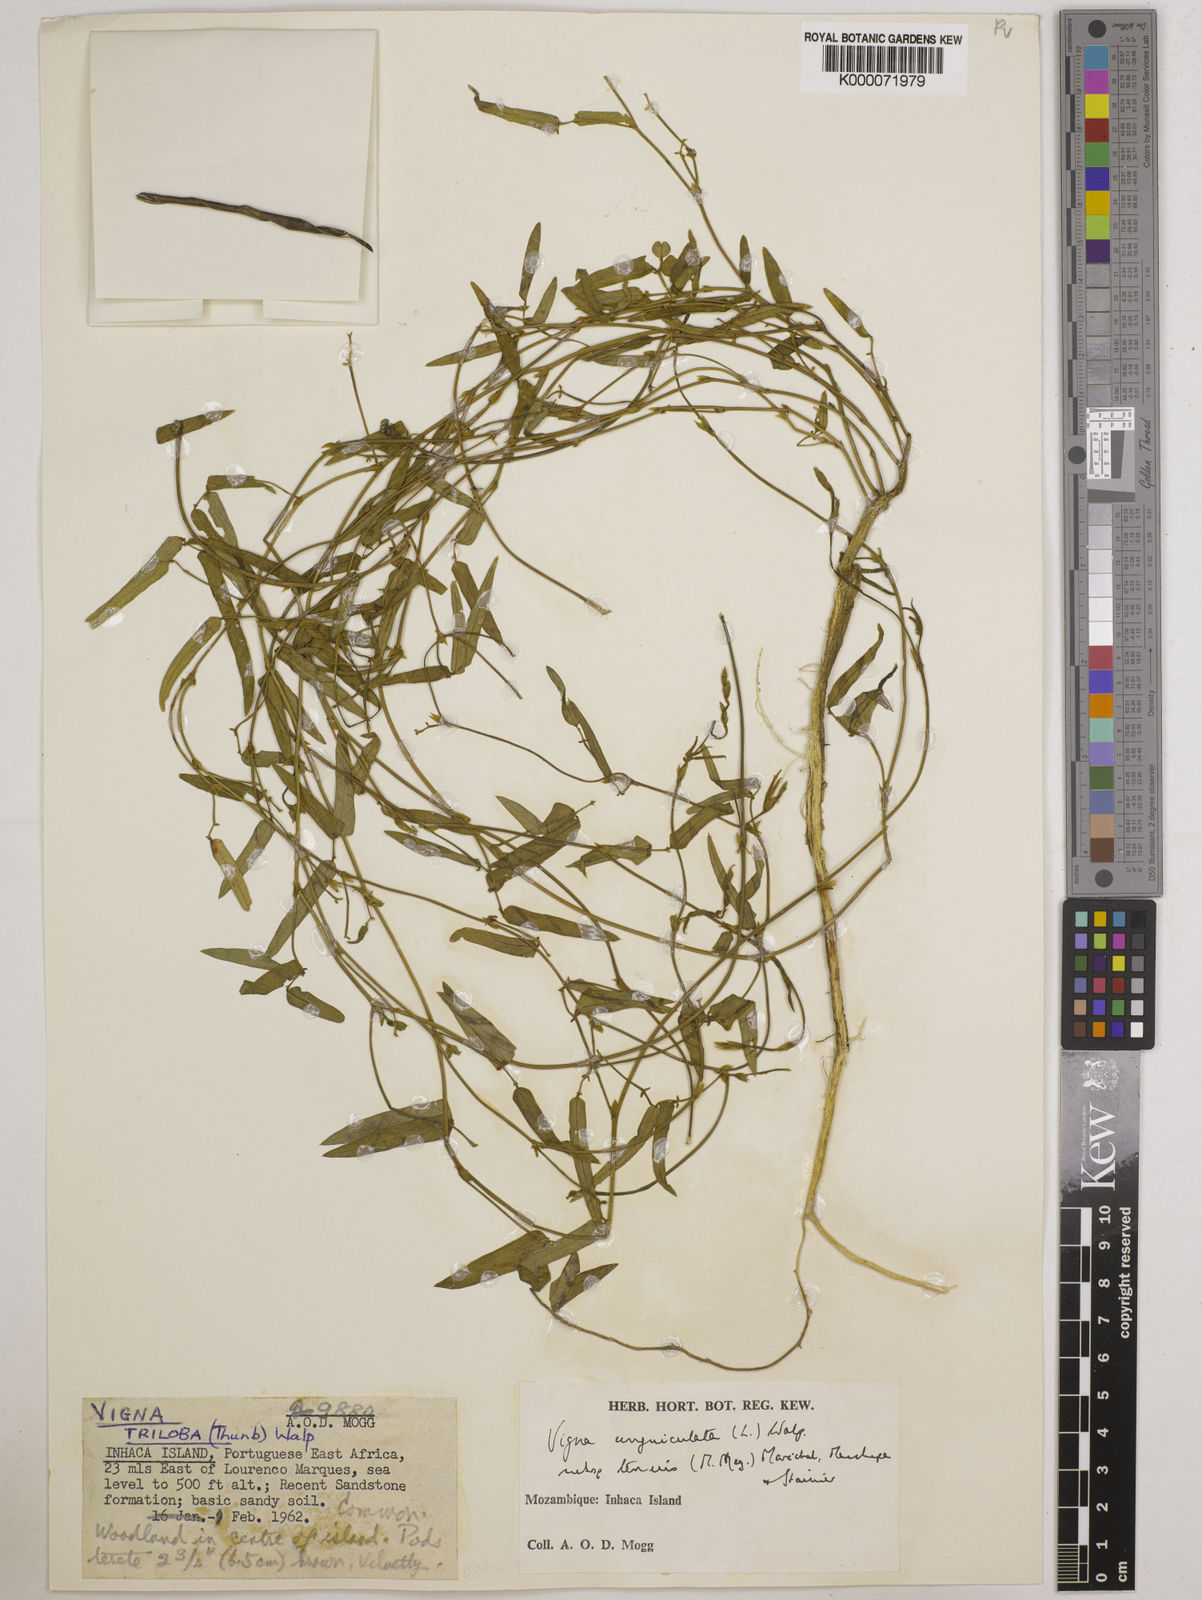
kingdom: Plantae
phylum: Tracheophyta
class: Magnoliopsida
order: Fabales
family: Fabaceae
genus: Vigna
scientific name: Vigna unguiculata
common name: Cowpea
